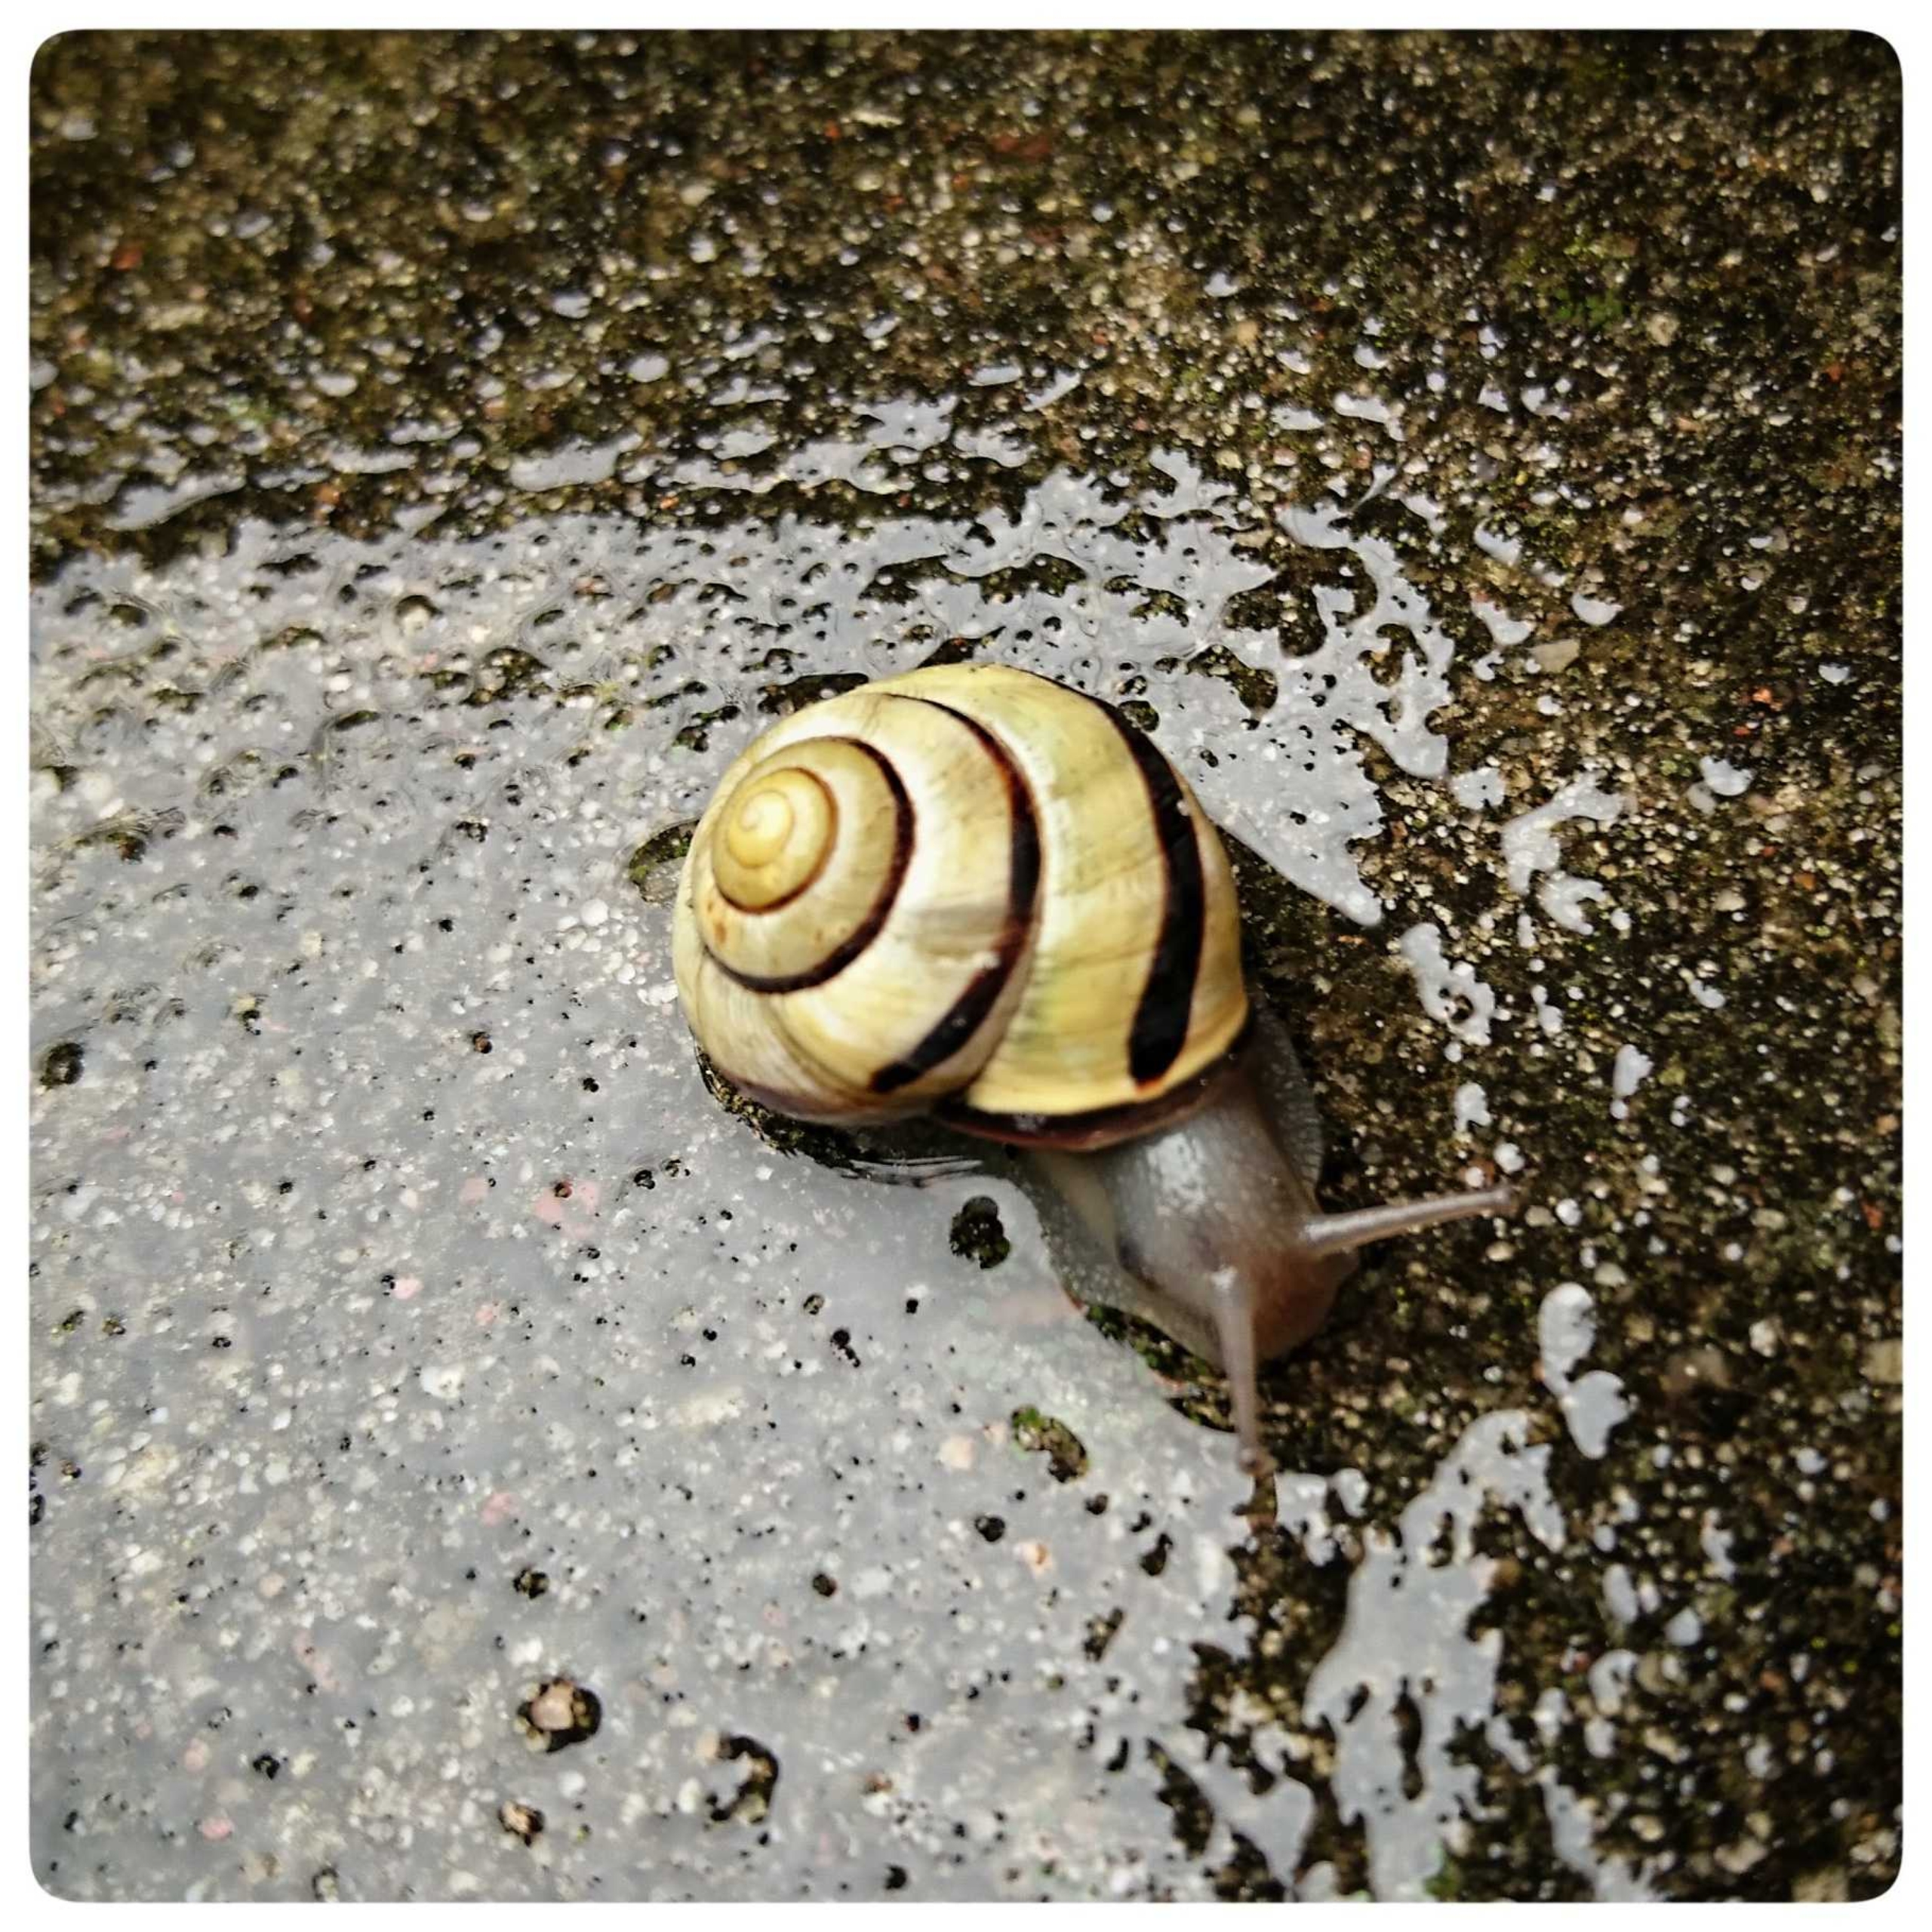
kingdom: Animalia
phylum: Mollusca
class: Gastropoda
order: Stylommatophora
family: Helicidae
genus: Cepaea
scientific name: Cepaea nemoralis
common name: Lundsnegl
